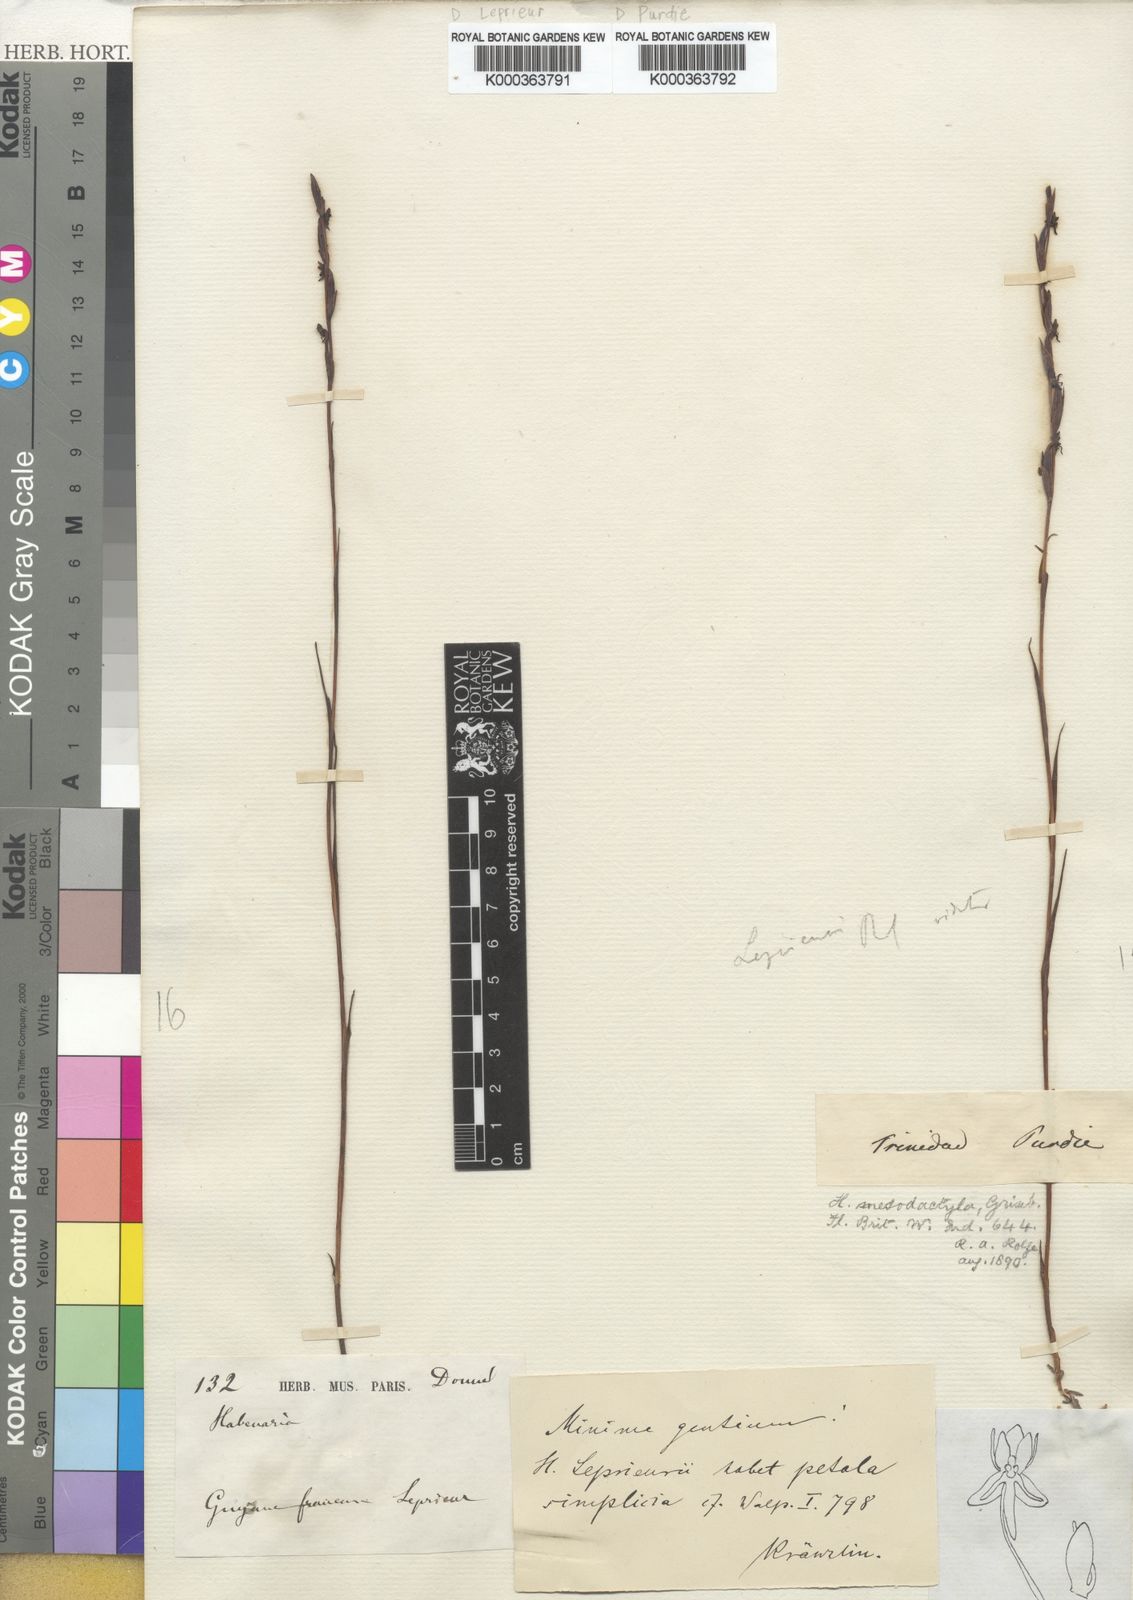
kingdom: Plantae
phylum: Tracheophyta
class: Liliopsida
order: Asparagales
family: Orchidaceae
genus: Habenaria
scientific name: Habenaria mesodactyla
